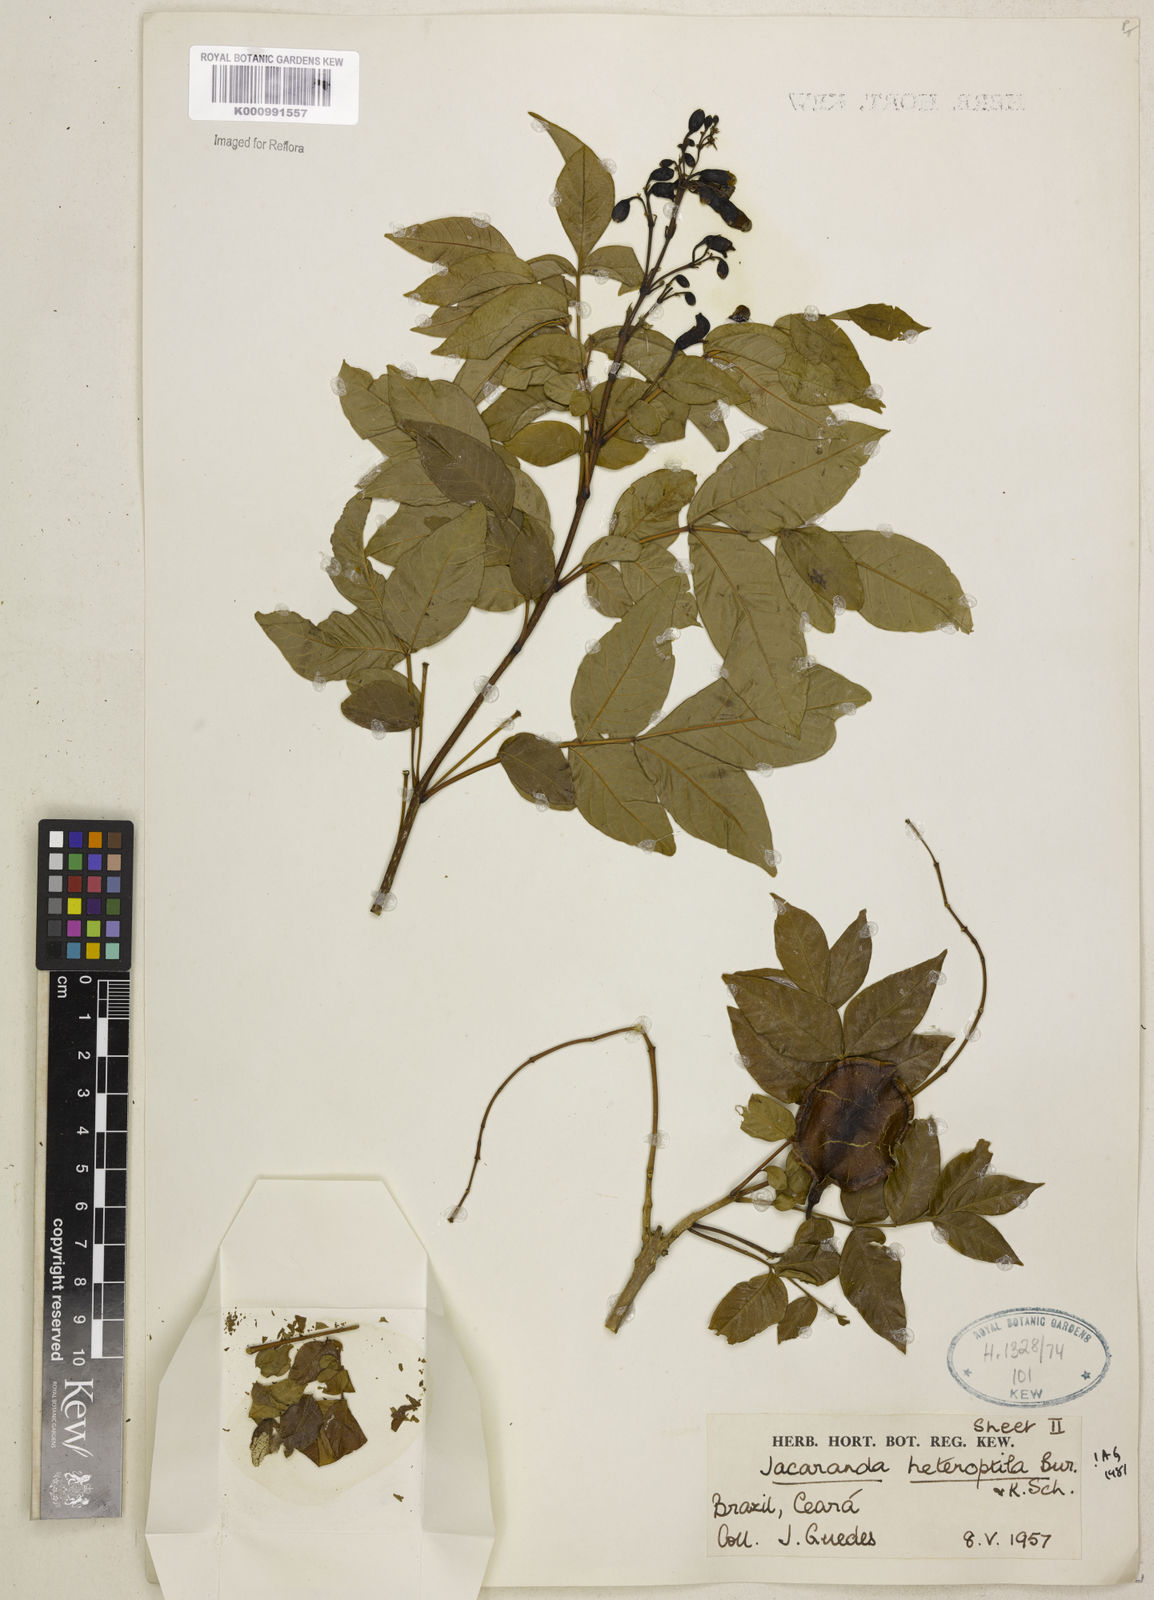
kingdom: Plantae
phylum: Tracheophyta
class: Magnoliopsida
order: Lamiales
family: Bignoniaceae
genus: Jacaranda
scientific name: Jacaranda macrantha
